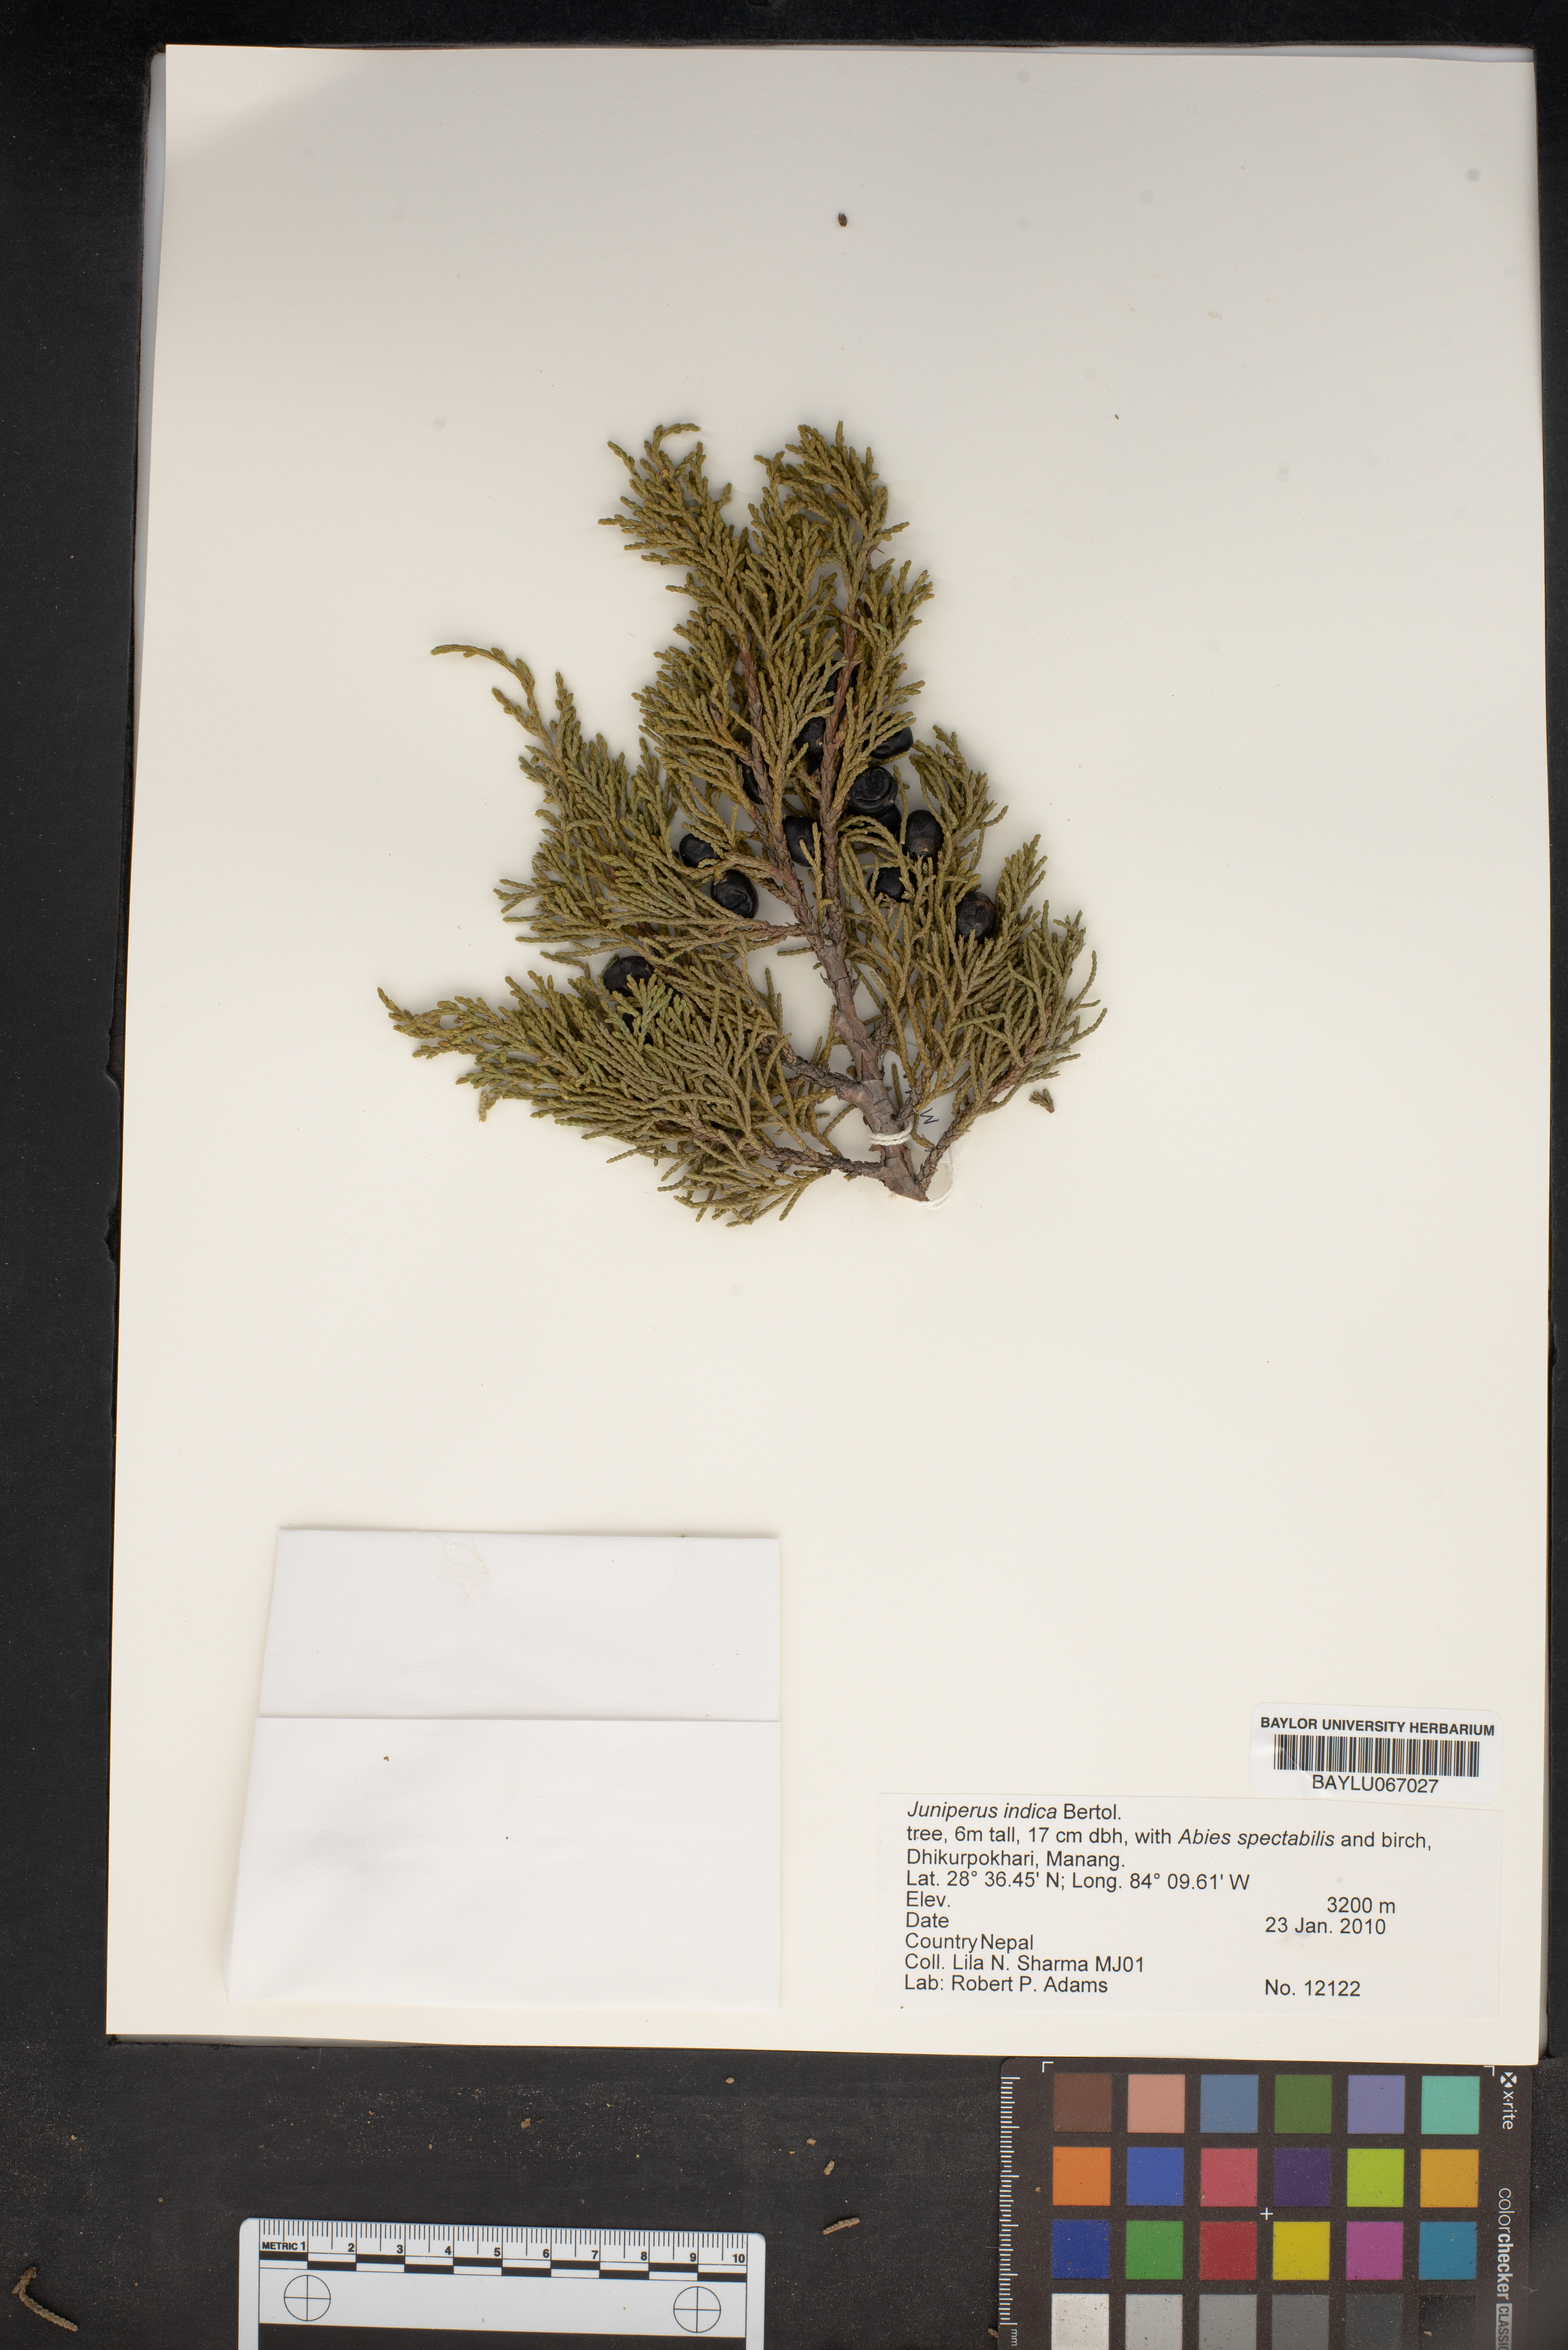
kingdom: Plantae
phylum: Tracheophyta
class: Pinopsida
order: Pinales
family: Cupressaceae
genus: Juniperus
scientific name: Juniperus indica
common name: Black juniper
